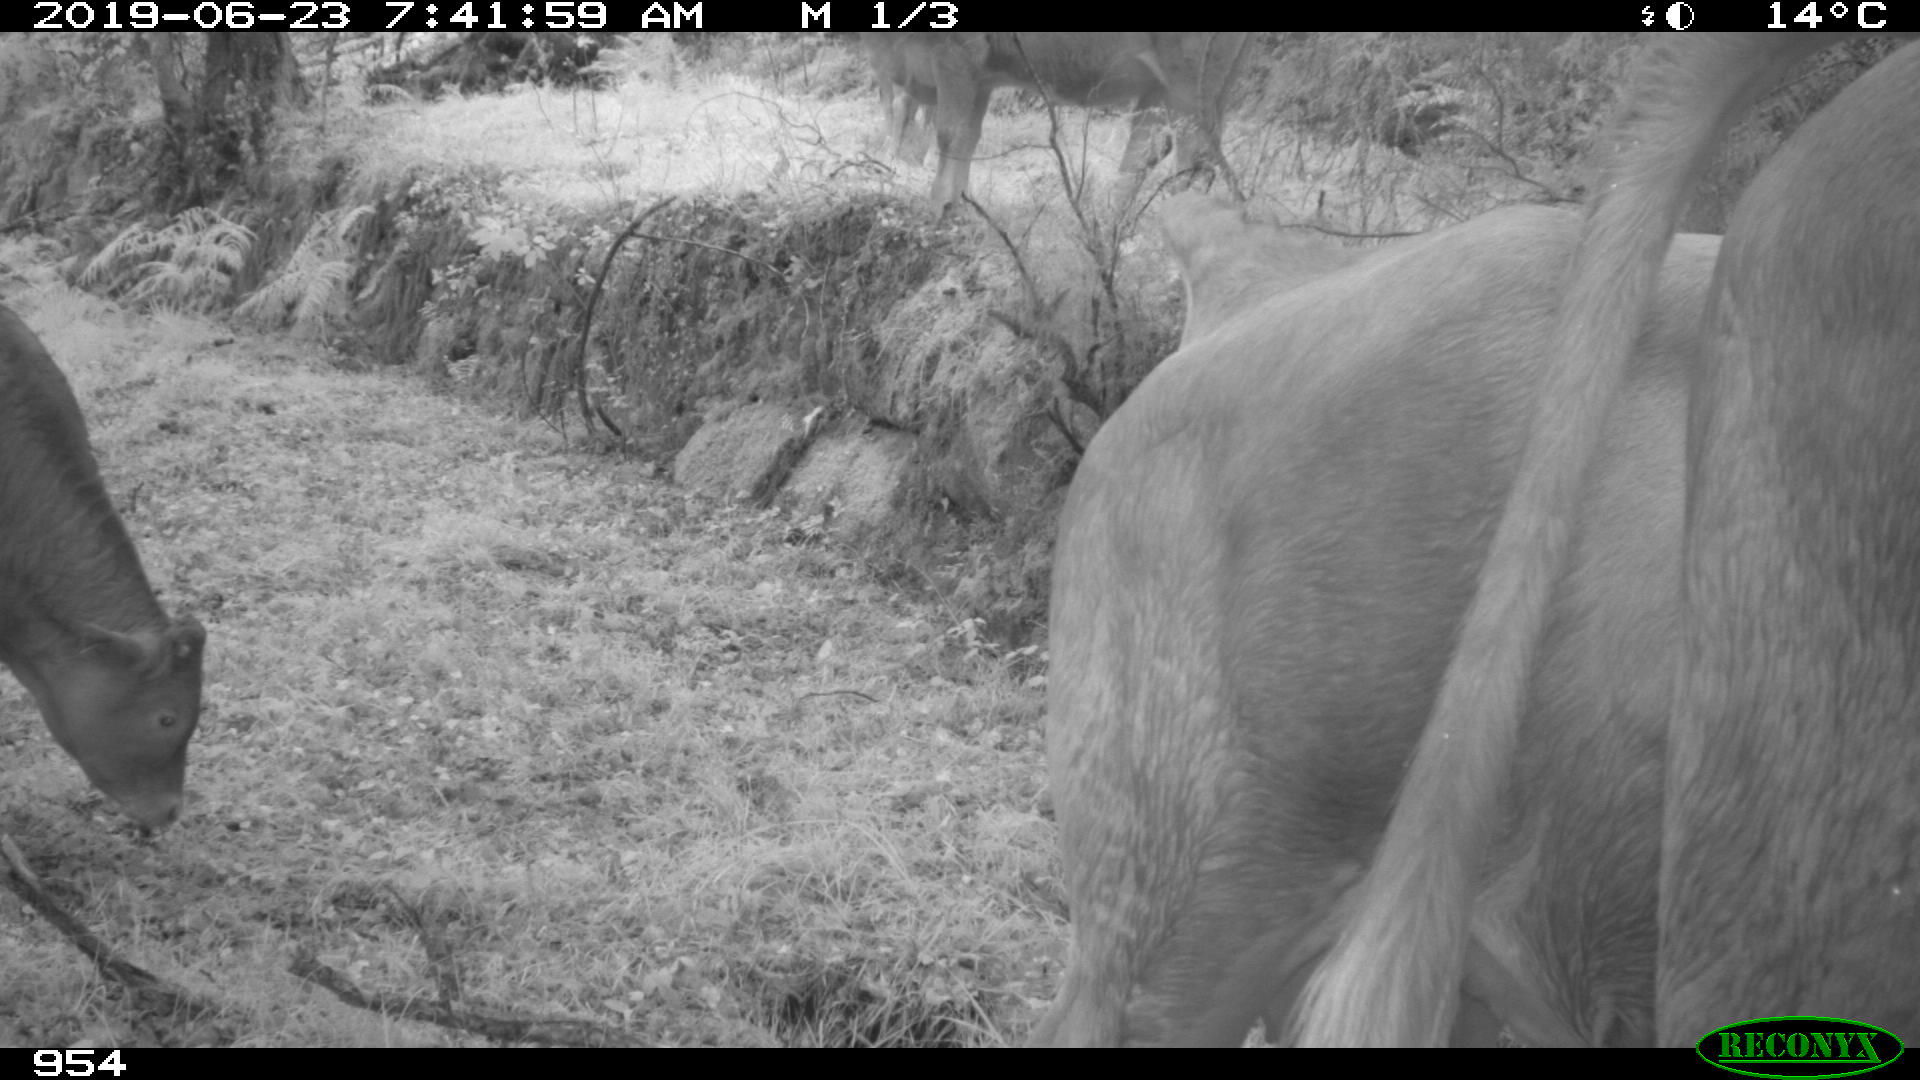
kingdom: Animalia
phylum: Chordata
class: Mammalia
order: Artiodactyla
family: Bovidae
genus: Bos
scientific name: Bos taurus
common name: Domesticated cattle
